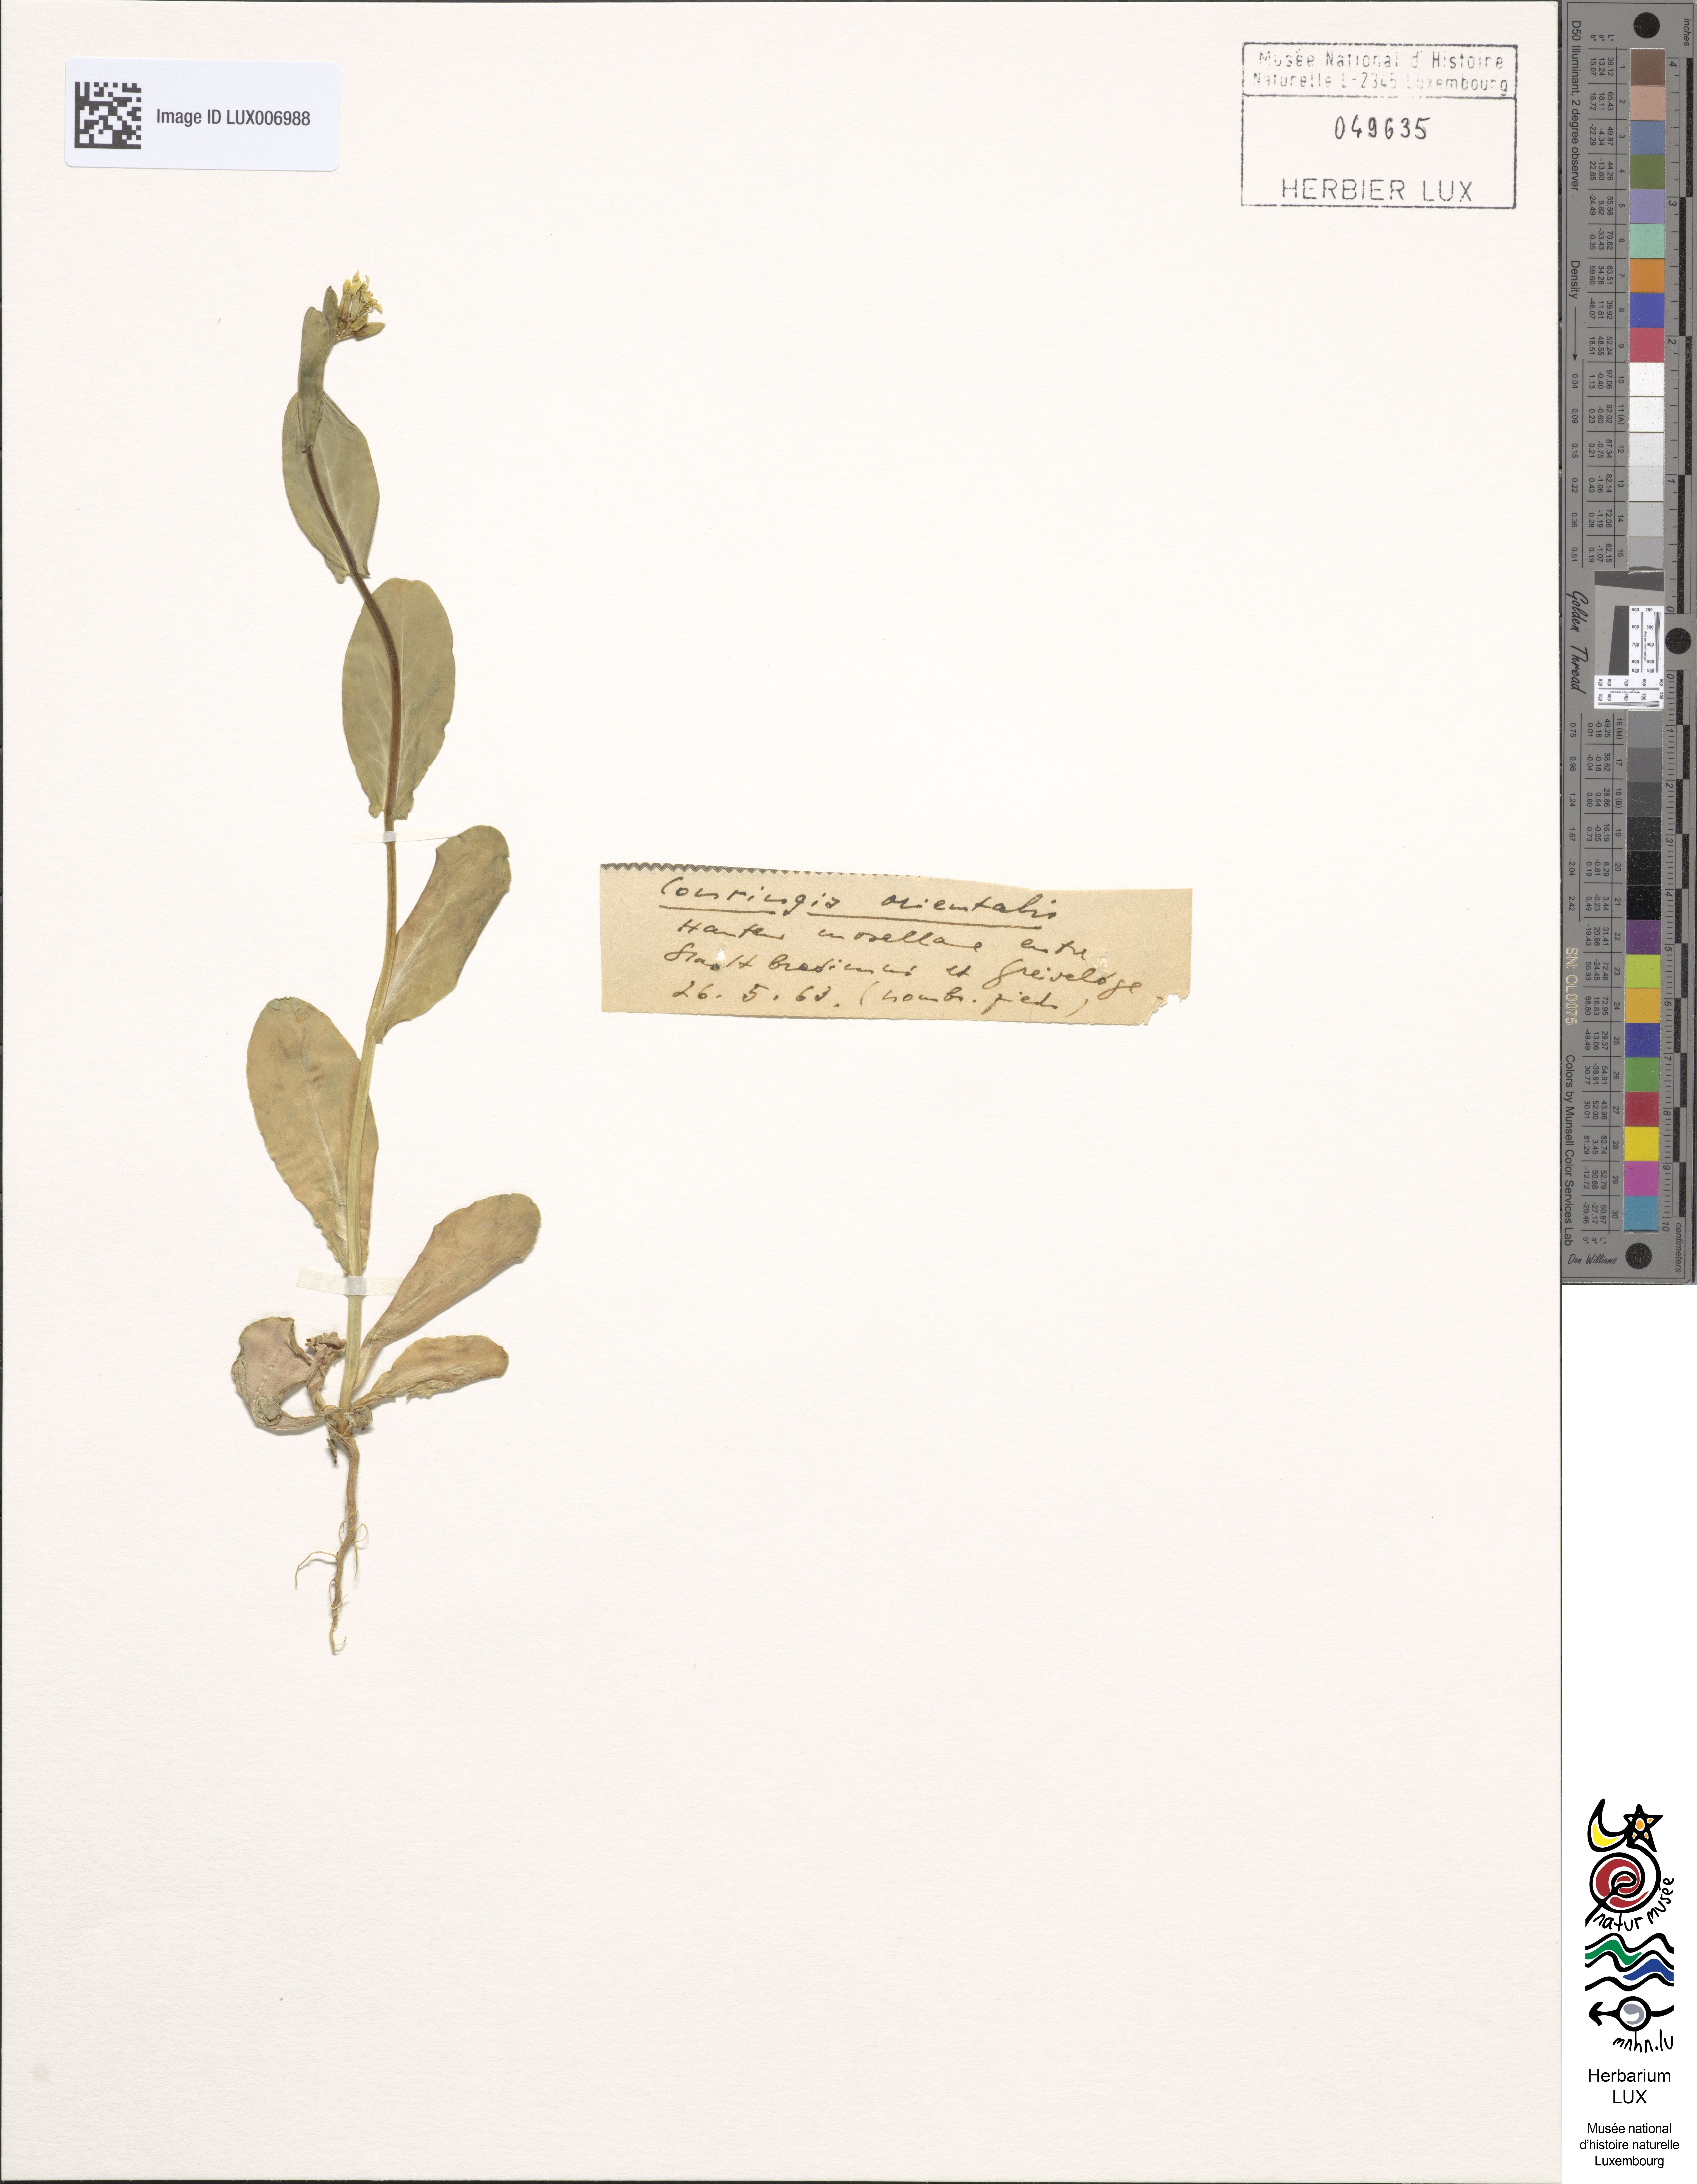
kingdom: Plantae
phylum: Tracheophyta
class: Magnoliopsida
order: Brassicales
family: Brassicaceae
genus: Conringia
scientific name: Conringia orientalis
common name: Hare's ear mustard
